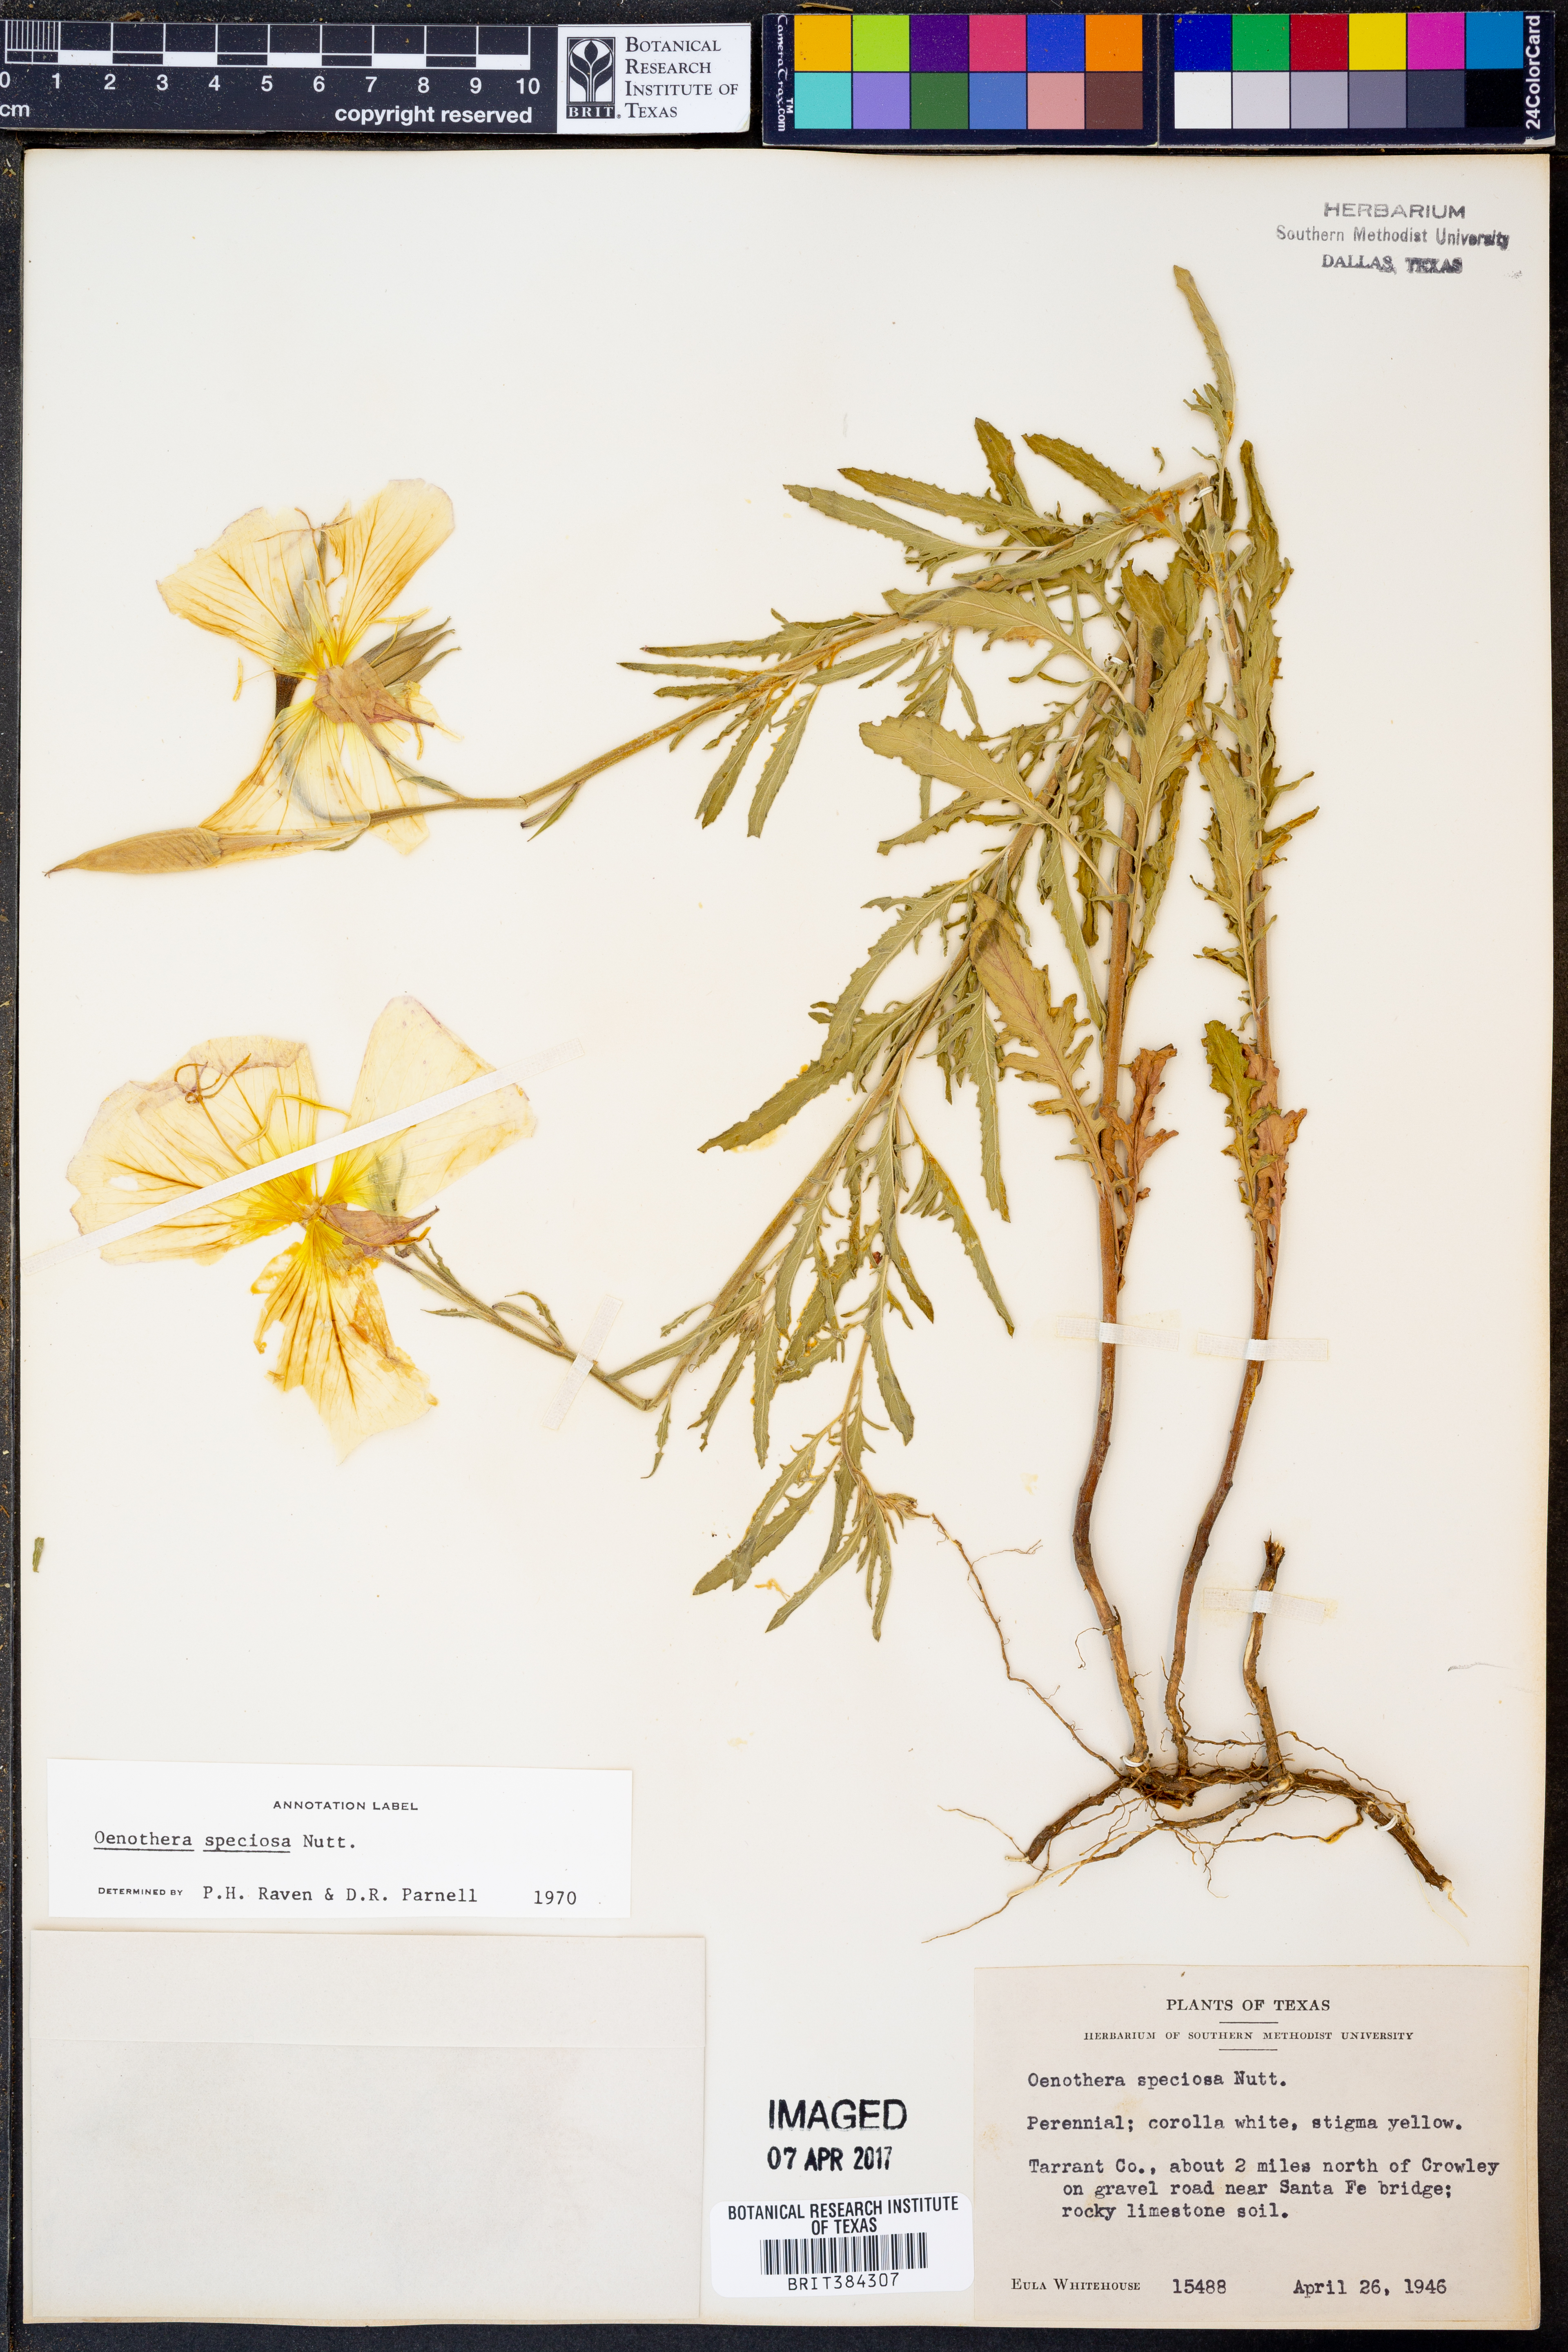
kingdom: Plantae
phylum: Tracheophyta
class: Magnoliopsida
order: Myrtales
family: Onagraceae
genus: Oenothera
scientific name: Oenothera speciosa
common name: White evening-primrose
